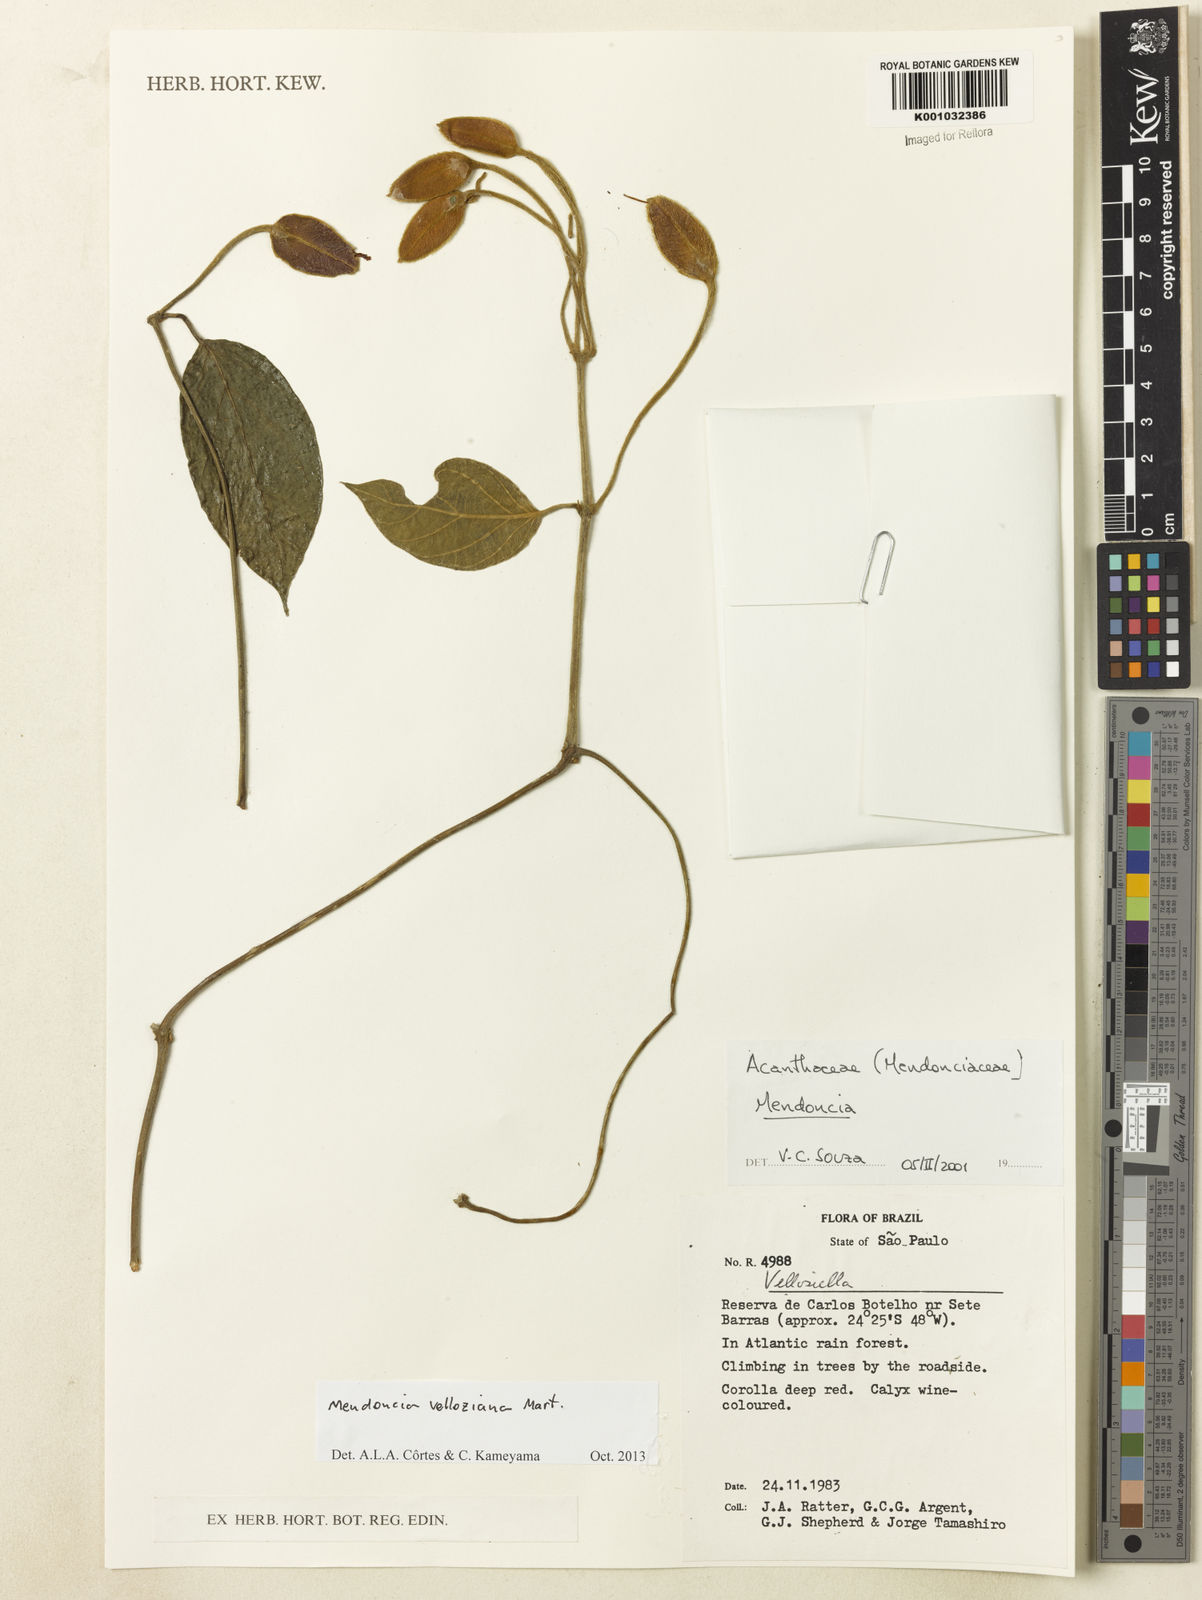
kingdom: Plantae
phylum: Tracheophyta
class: Magnoliopsida
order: Lamiales
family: Acanthaceae
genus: Mendoncia
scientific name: Mendoncia velloziana
